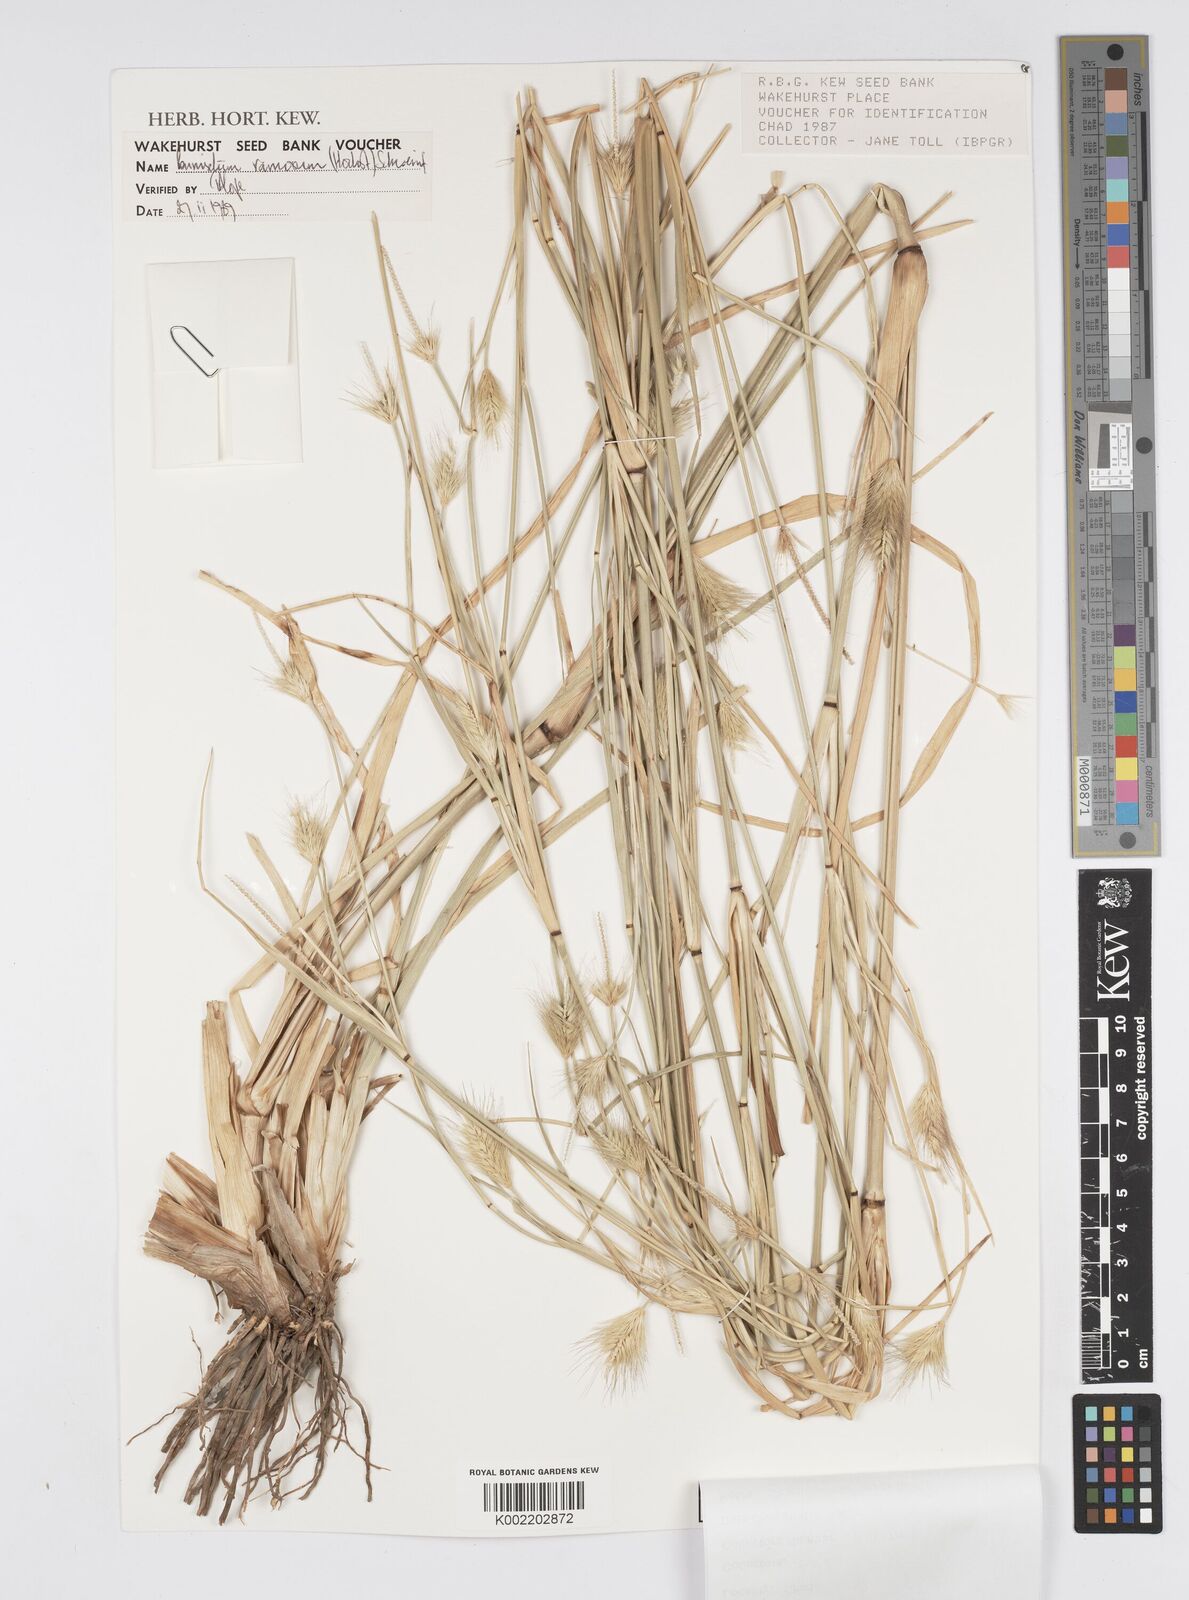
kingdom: Plantae
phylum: Tracheophyta
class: Liliopsida
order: Poales
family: Poaceae
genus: Cenchrus
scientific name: Cenchrus setosus
